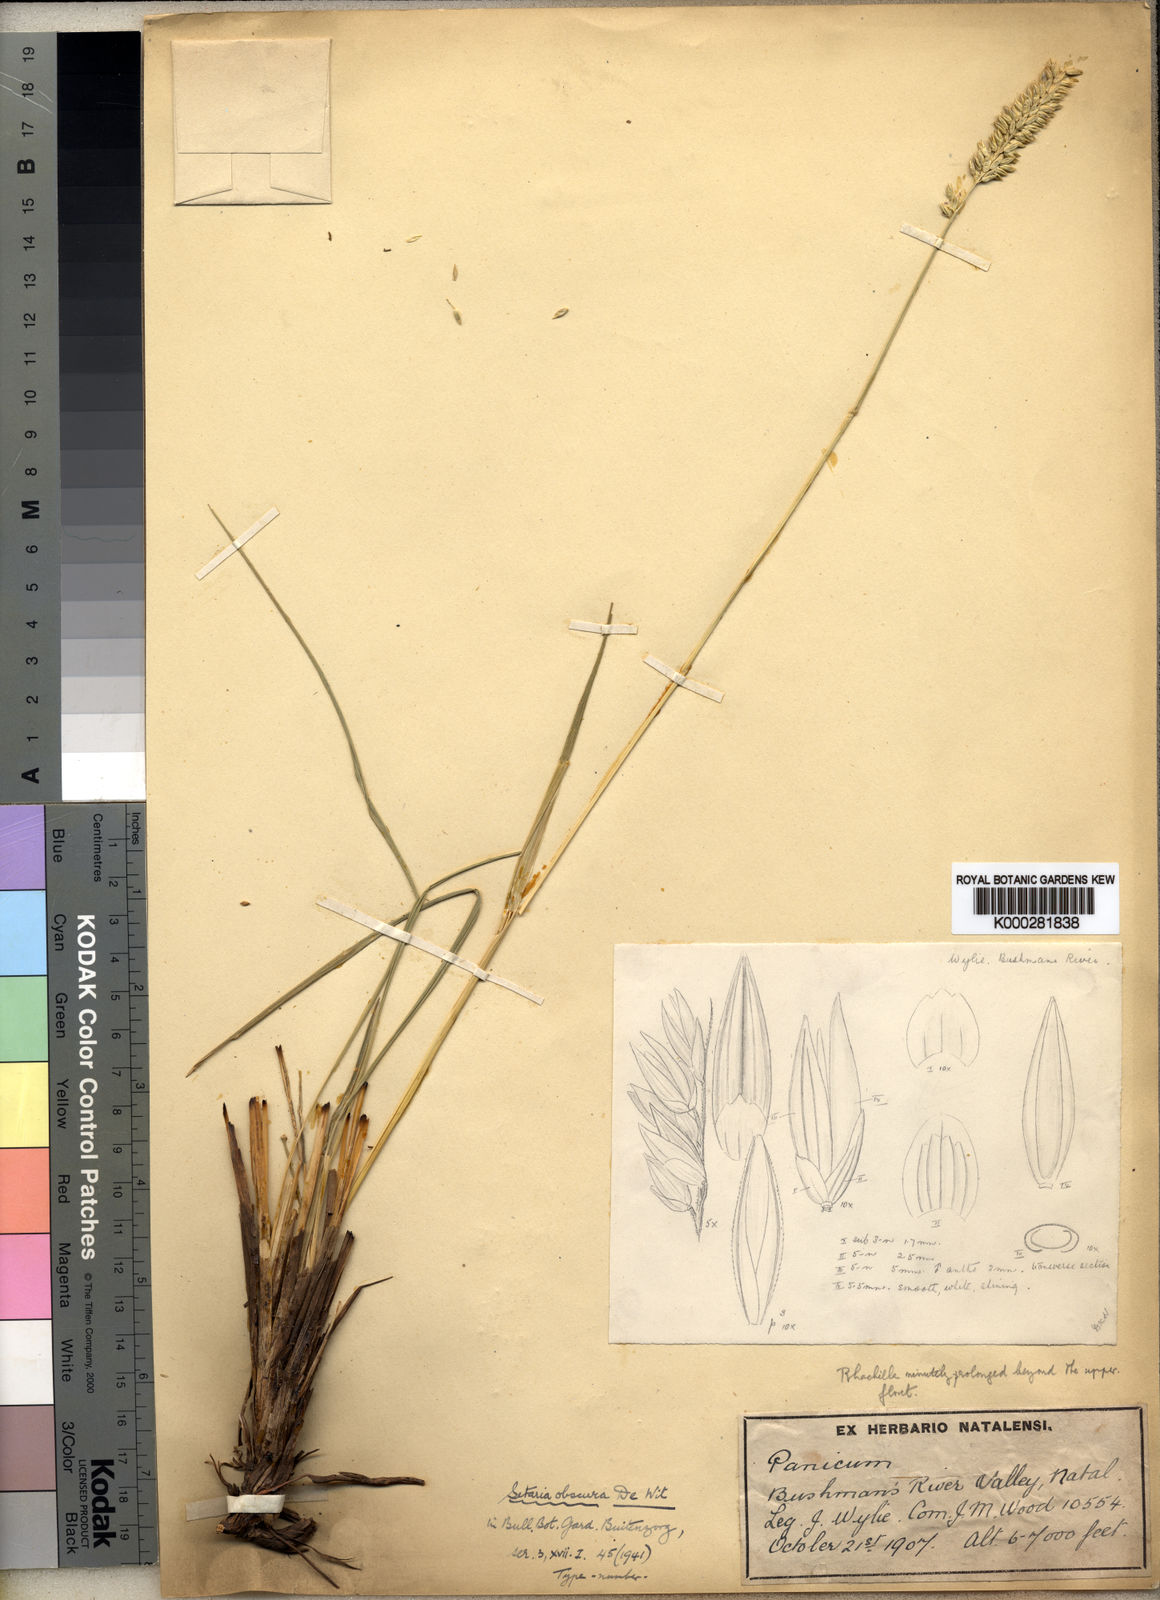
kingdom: Plantae
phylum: Tracheophyta
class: Liliopsida
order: Poales
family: Poaceae
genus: Setaria
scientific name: Setaria obscura
